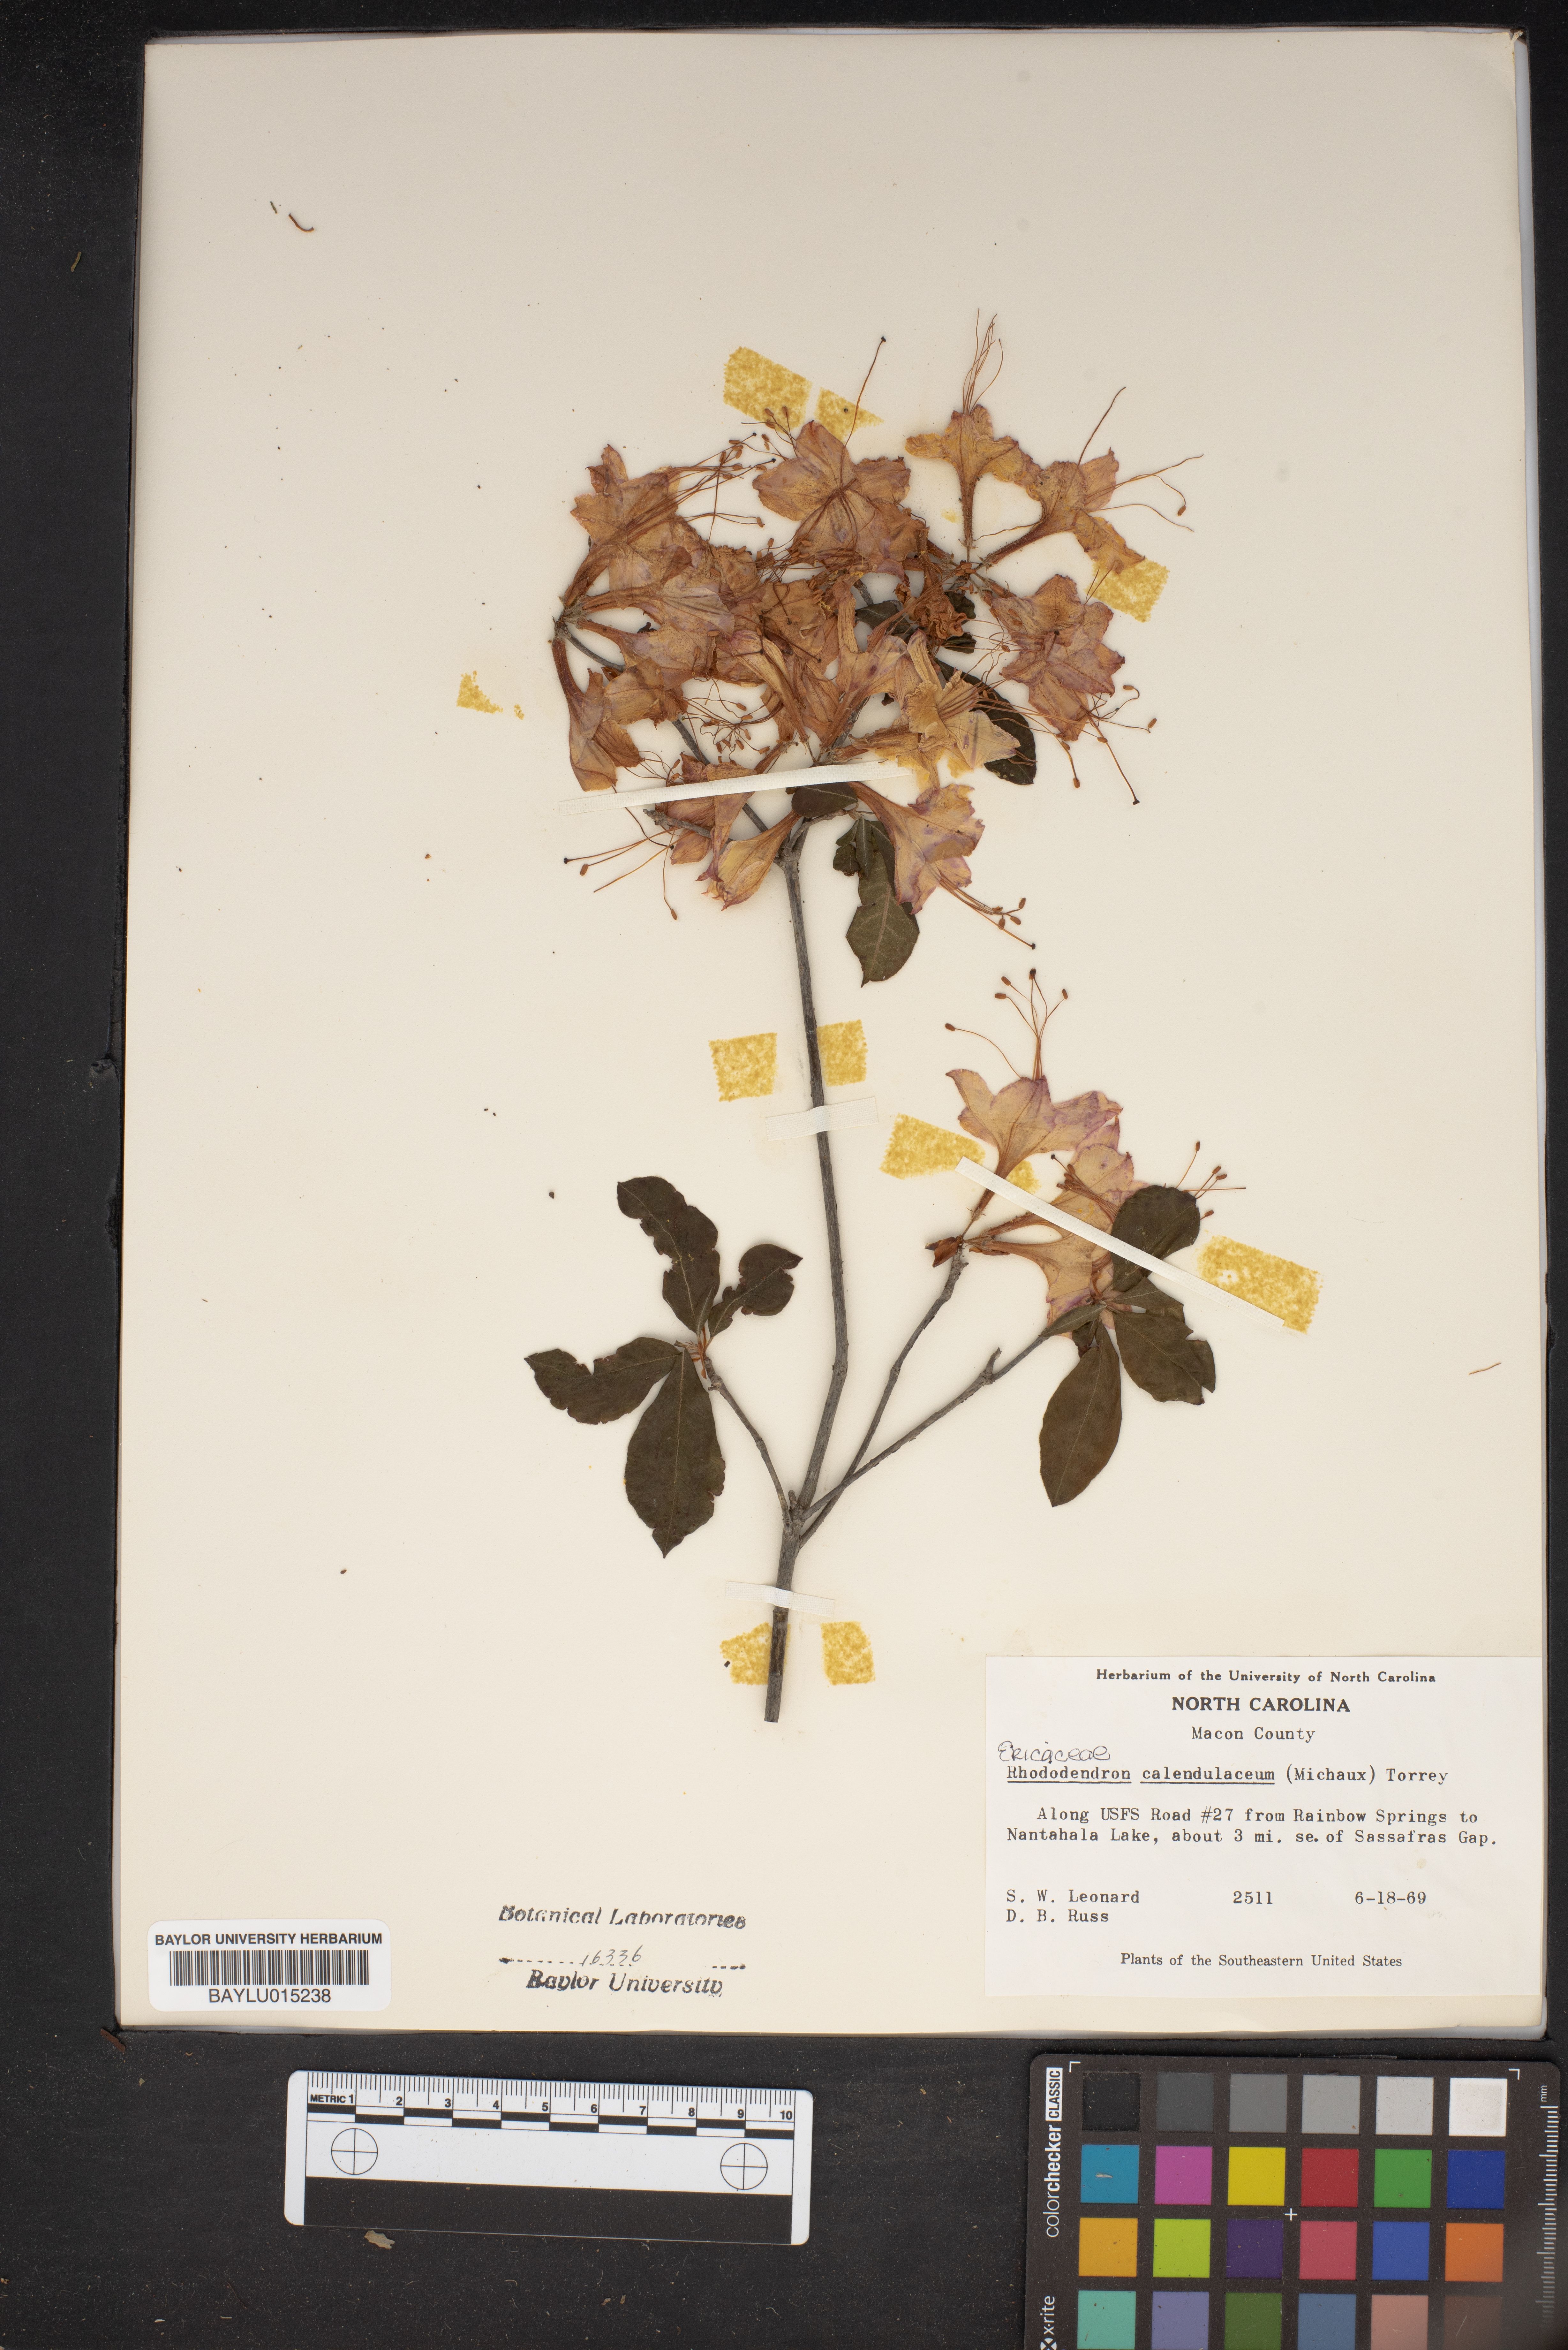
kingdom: Plantae
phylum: Tracheophyta
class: Magnoliopsida
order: Ericales
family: Ericaceae
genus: Rhododendron
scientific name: Rhododendron calendulaceum
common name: Flame azalea
